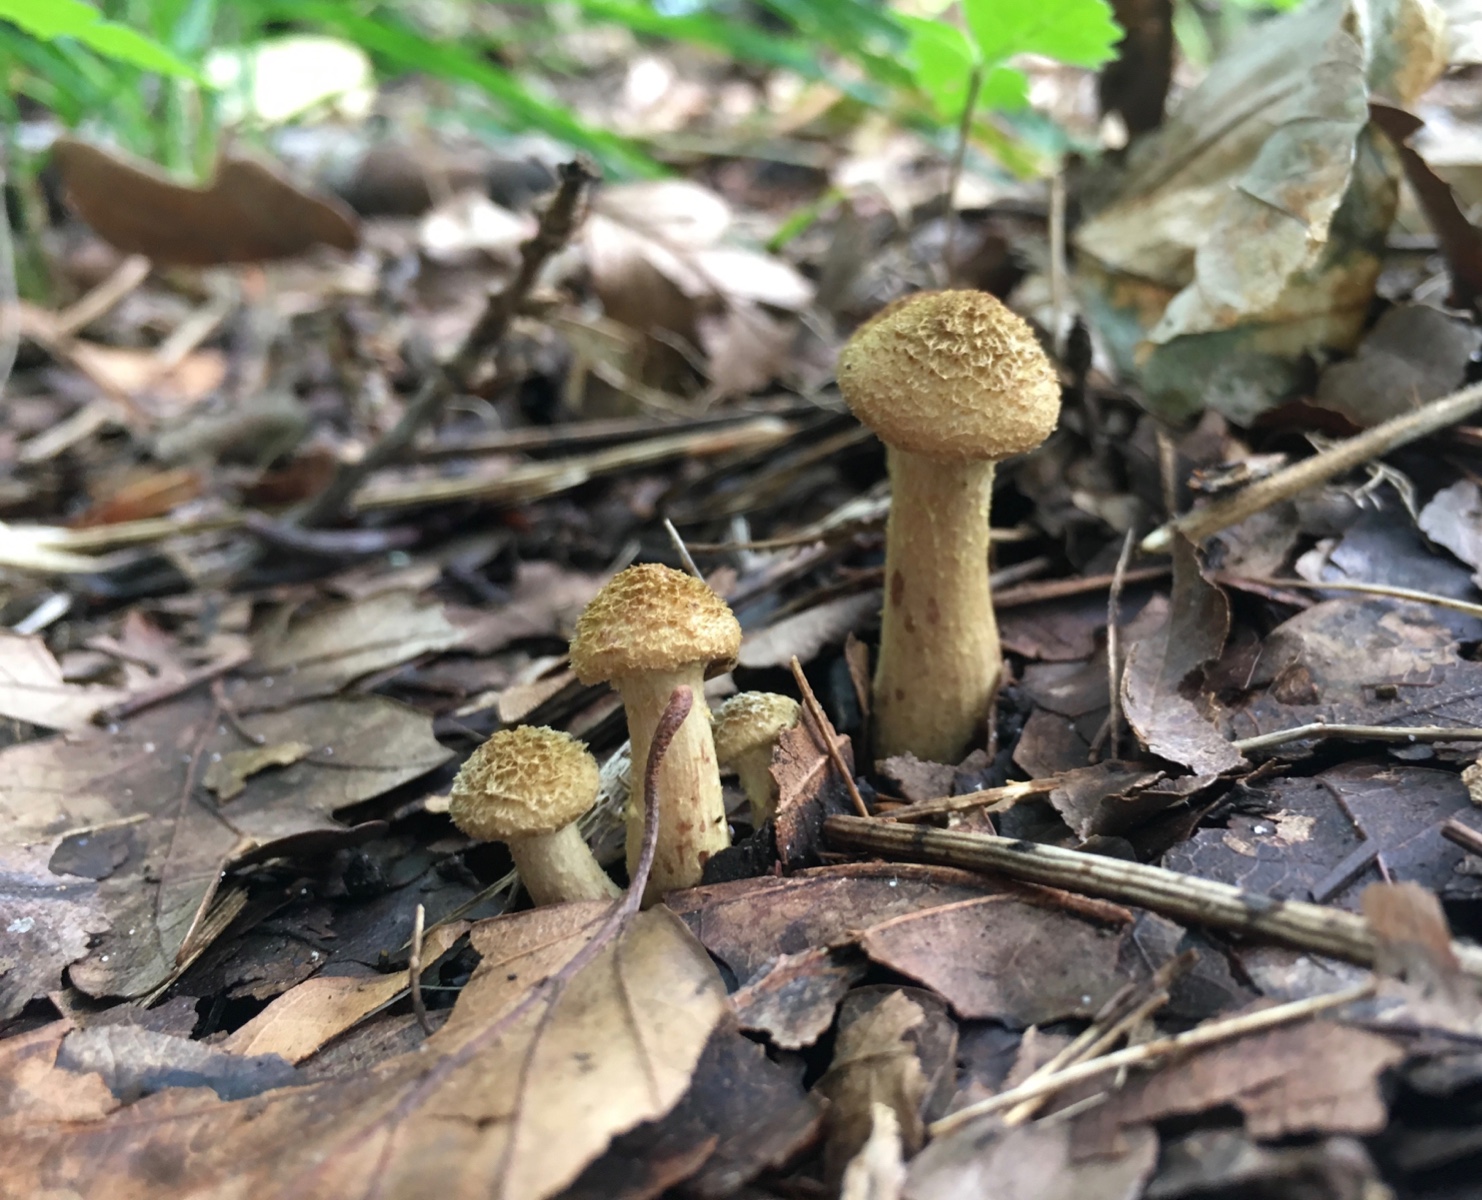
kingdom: Fungi
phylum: Basidiomycota
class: Agaricomycetes
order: Agaricales
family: Physalacriaceae
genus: Armillaria
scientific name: Armillaria lutea
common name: køllestokket honningsvamp
